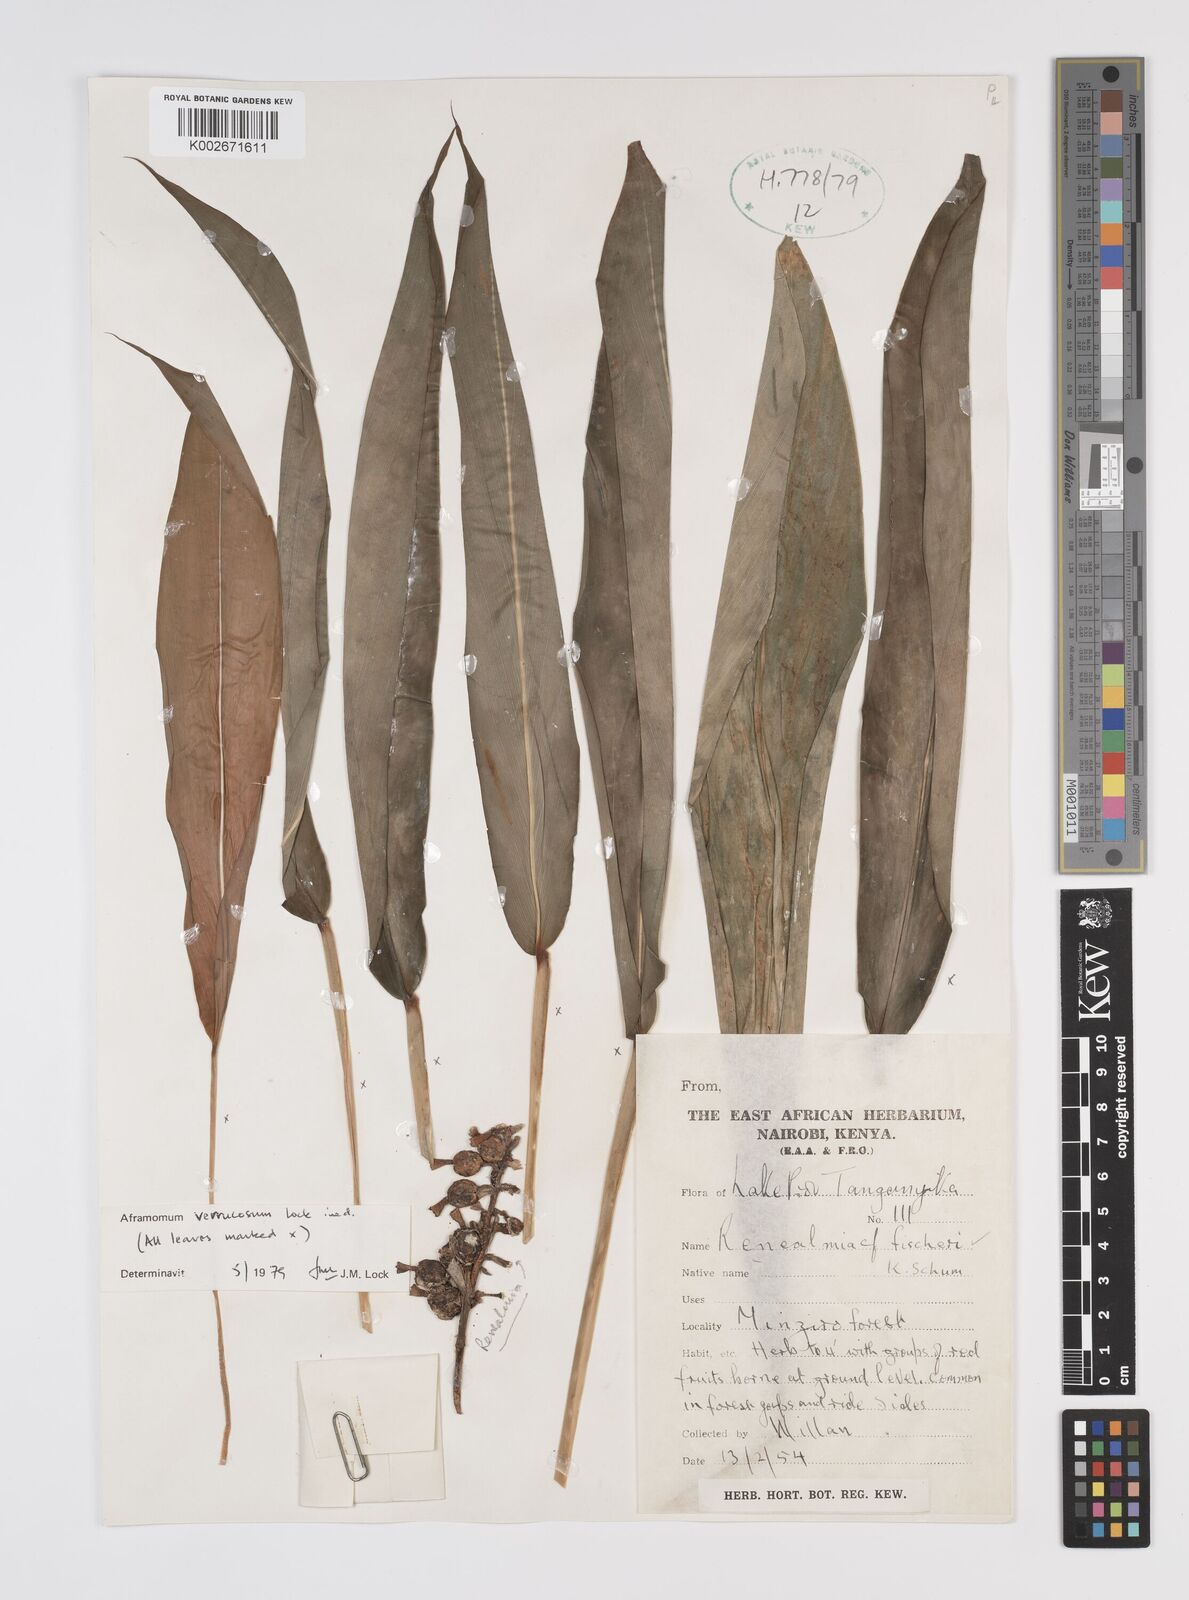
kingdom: Plantae
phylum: Tracheophyta
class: Liliopsida
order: Zingiberales
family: Zingiberaceae
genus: Aframomum
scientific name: Aframomum verrucosum
